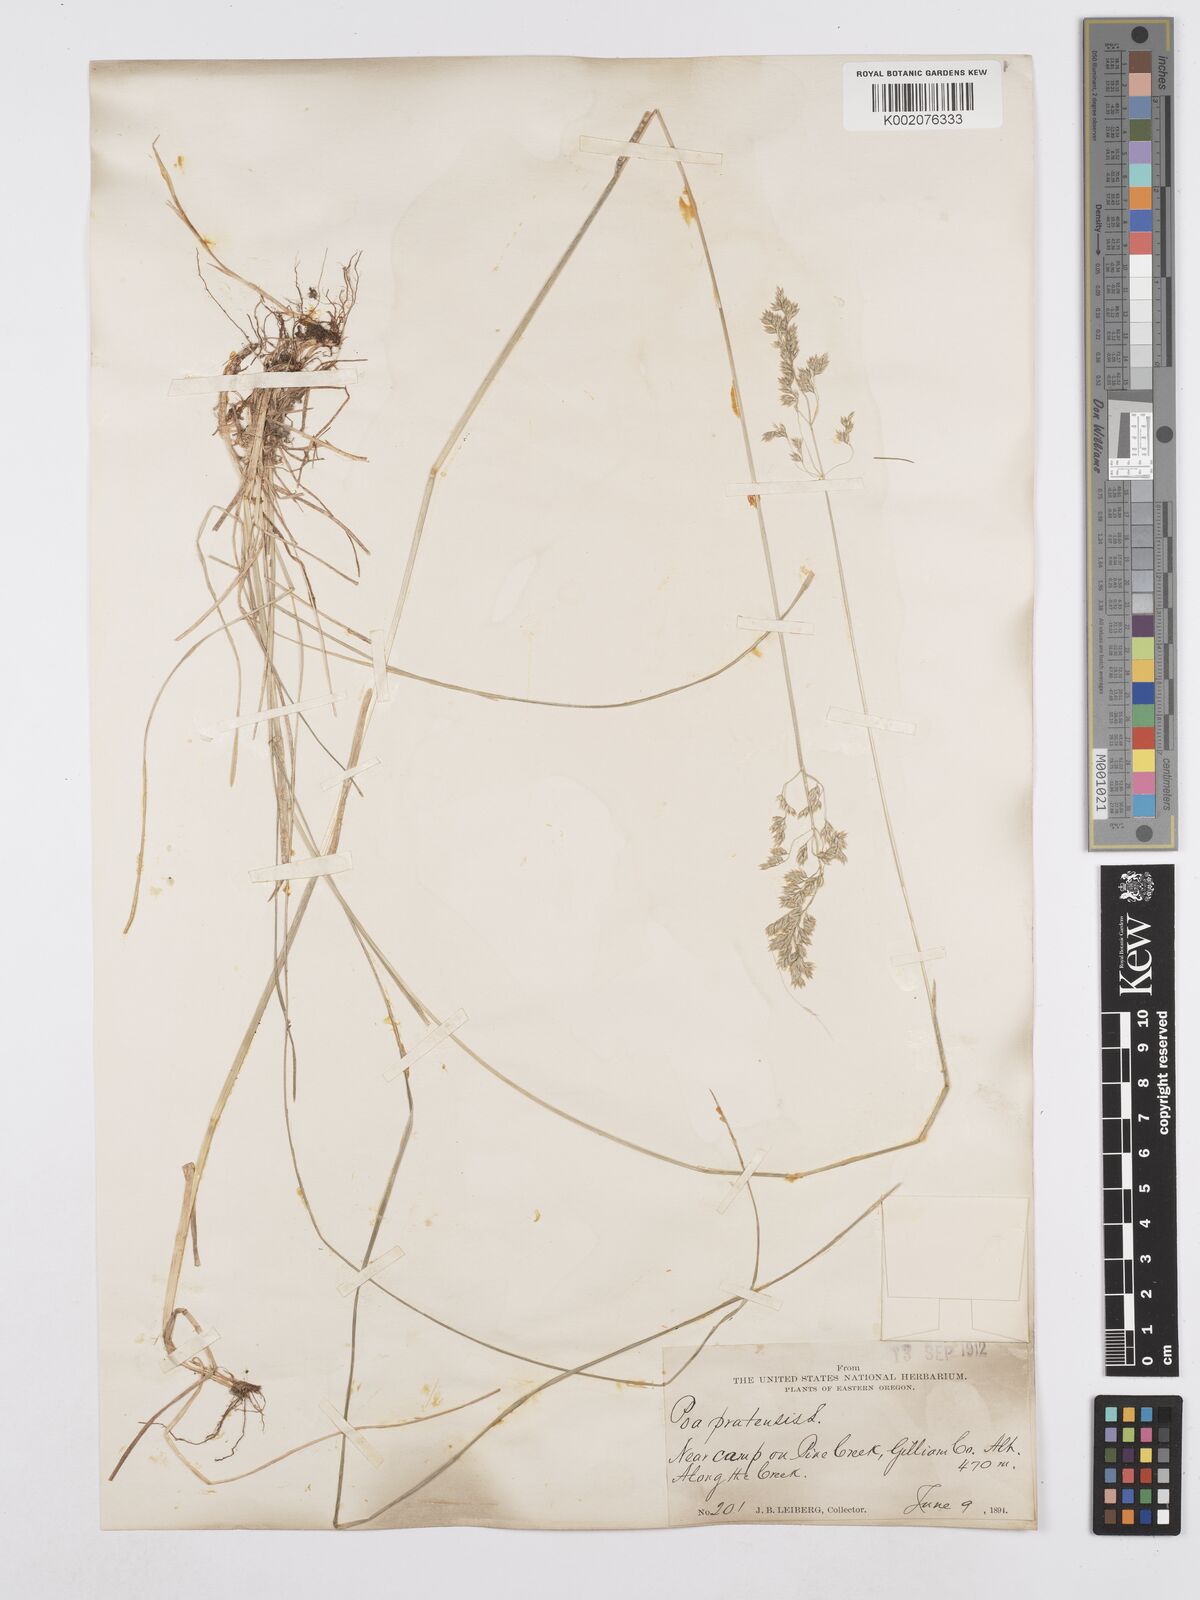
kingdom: Plantae
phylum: Tracheophyta
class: Liliopsida
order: Poales
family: Poaceae
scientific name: Poaceae
